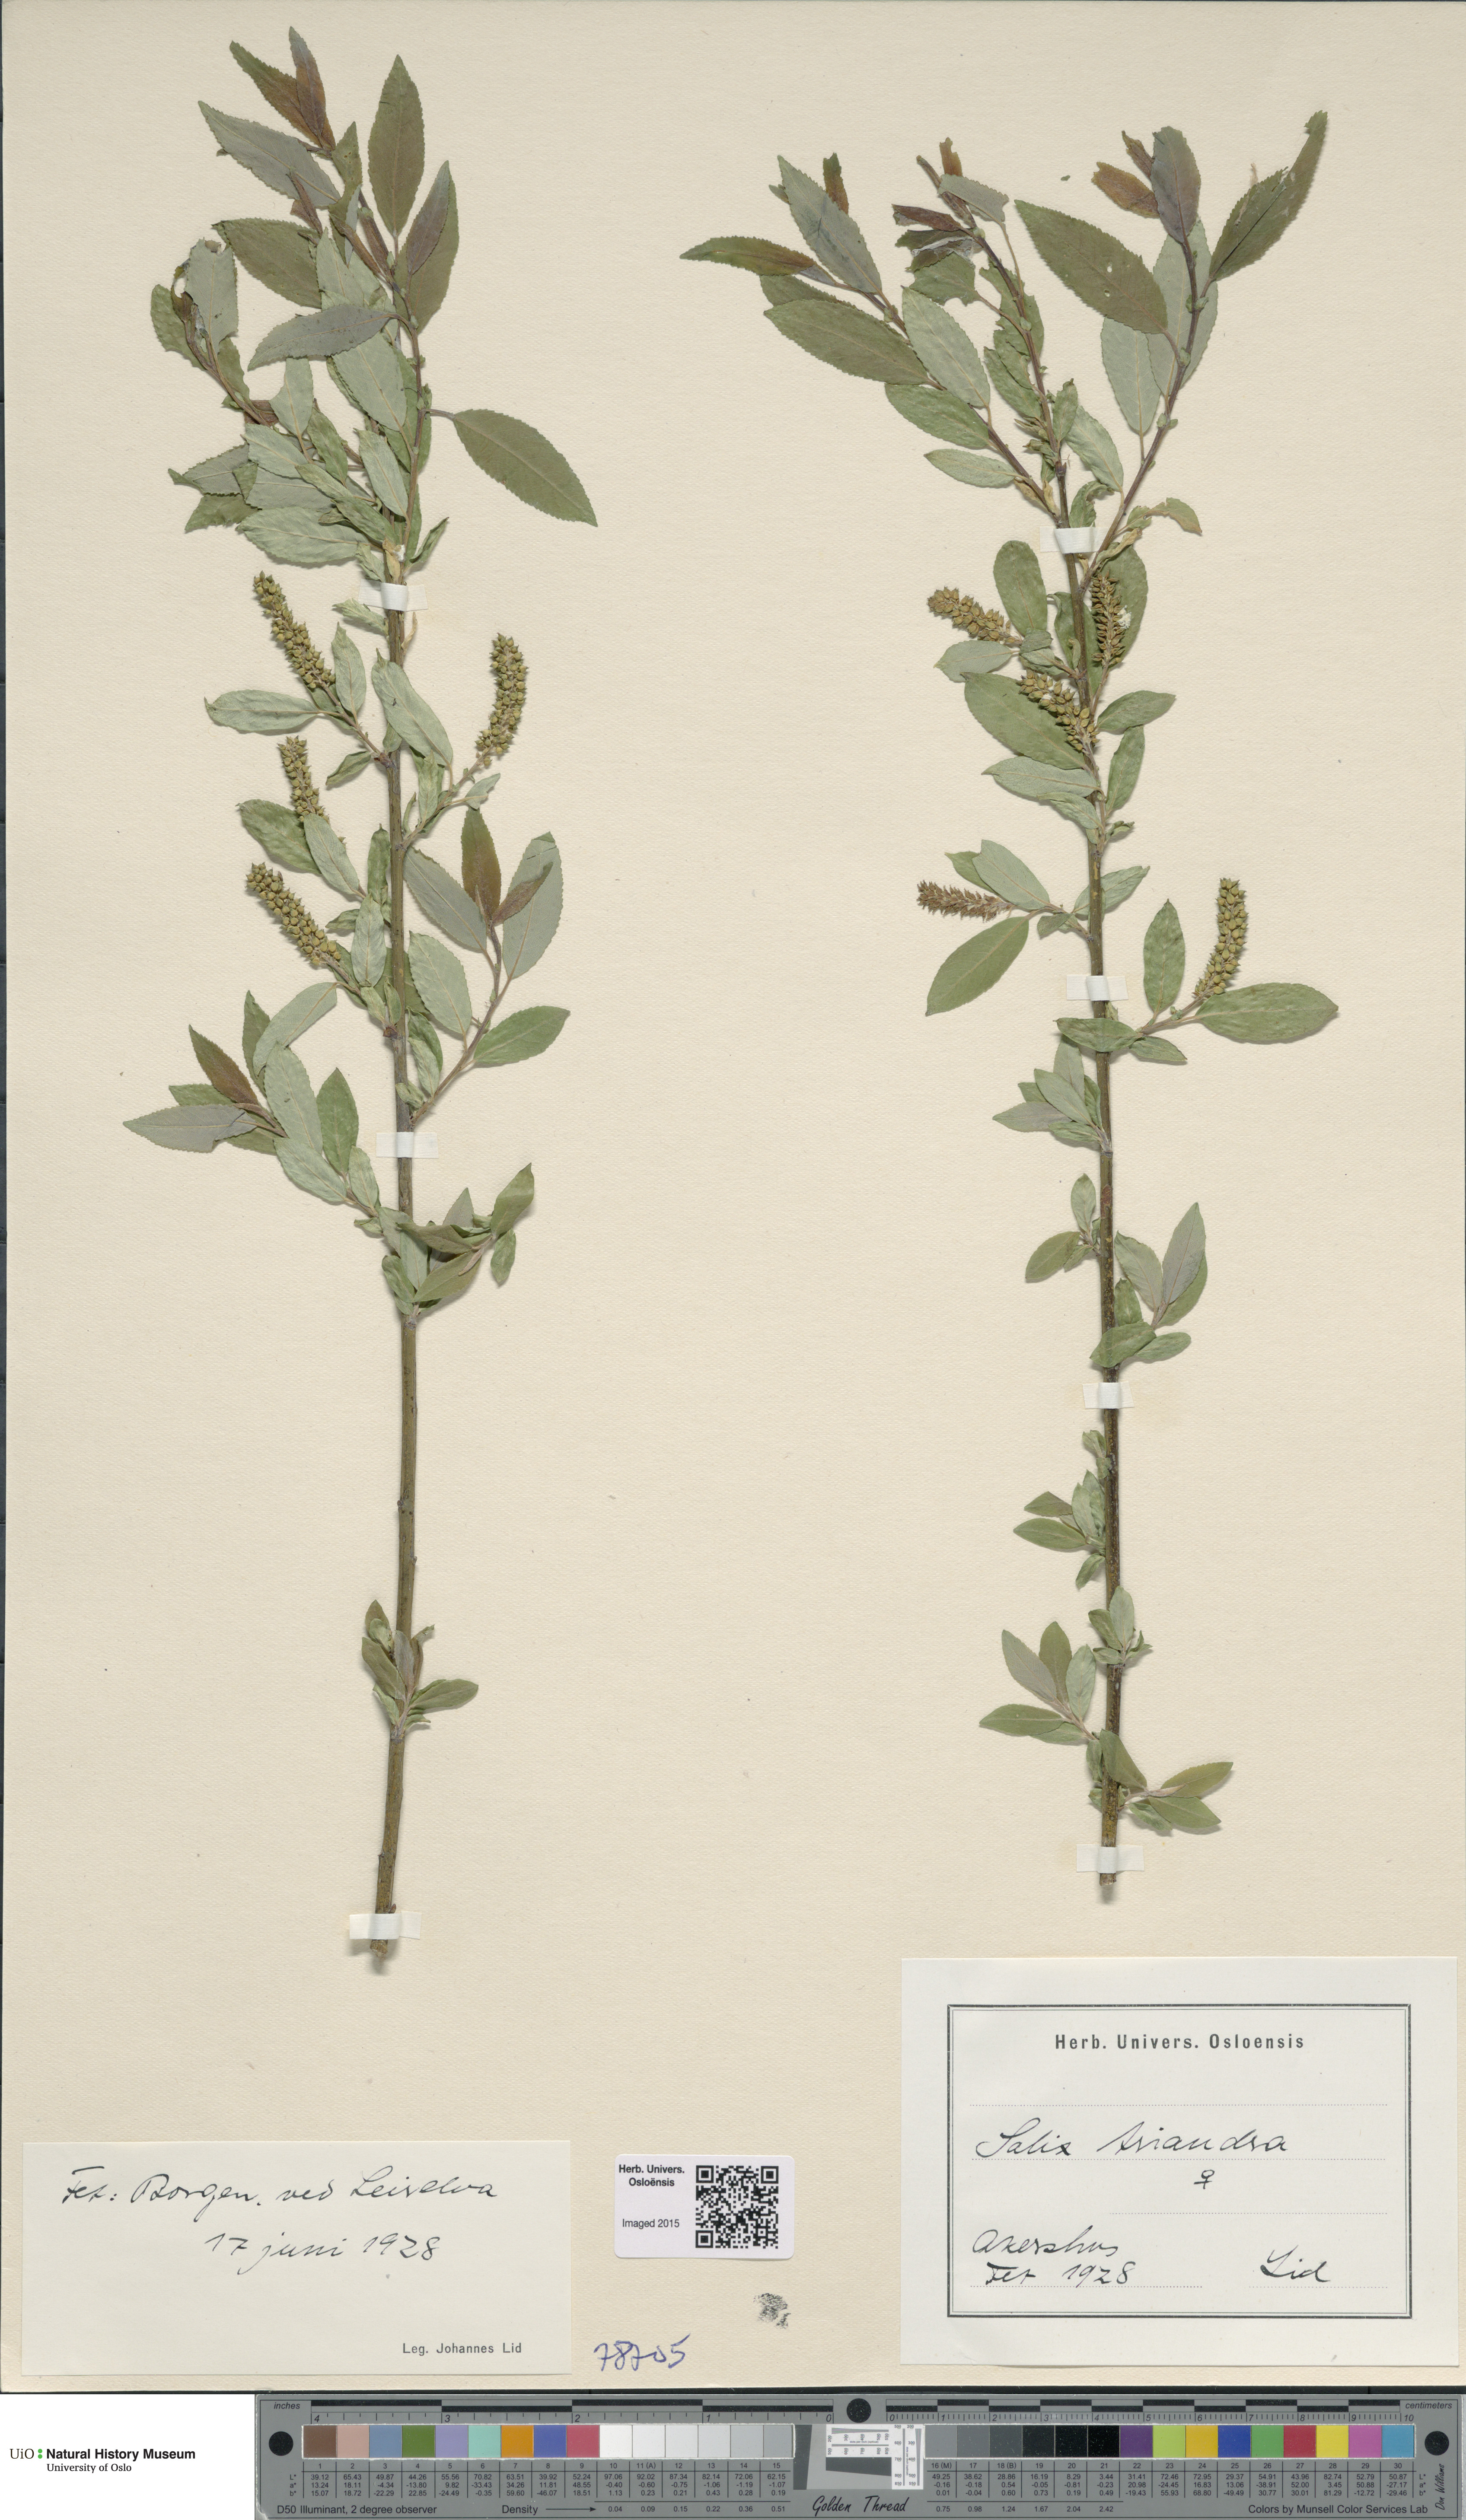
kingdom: Plantae
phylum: Tracheophyta
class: Magnoliopsida
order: Malpighiales
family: Salicaceae
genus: Salix
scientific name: Salix triandra
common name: Almond willow
